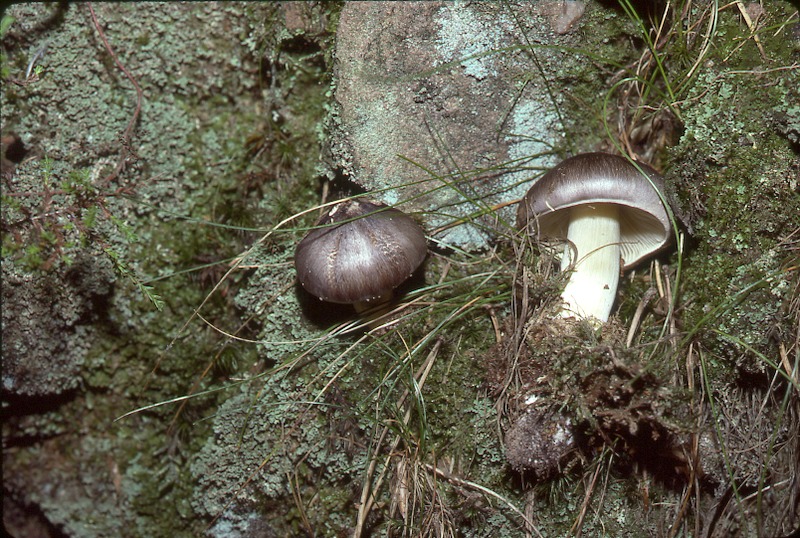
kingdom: Fungi
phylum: Basidiomycota
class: Agaricomycetes
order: Agaricales
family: Tricholomataceae
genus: Tricholoma
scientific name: Tricholoma portentosum
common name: Coalman
